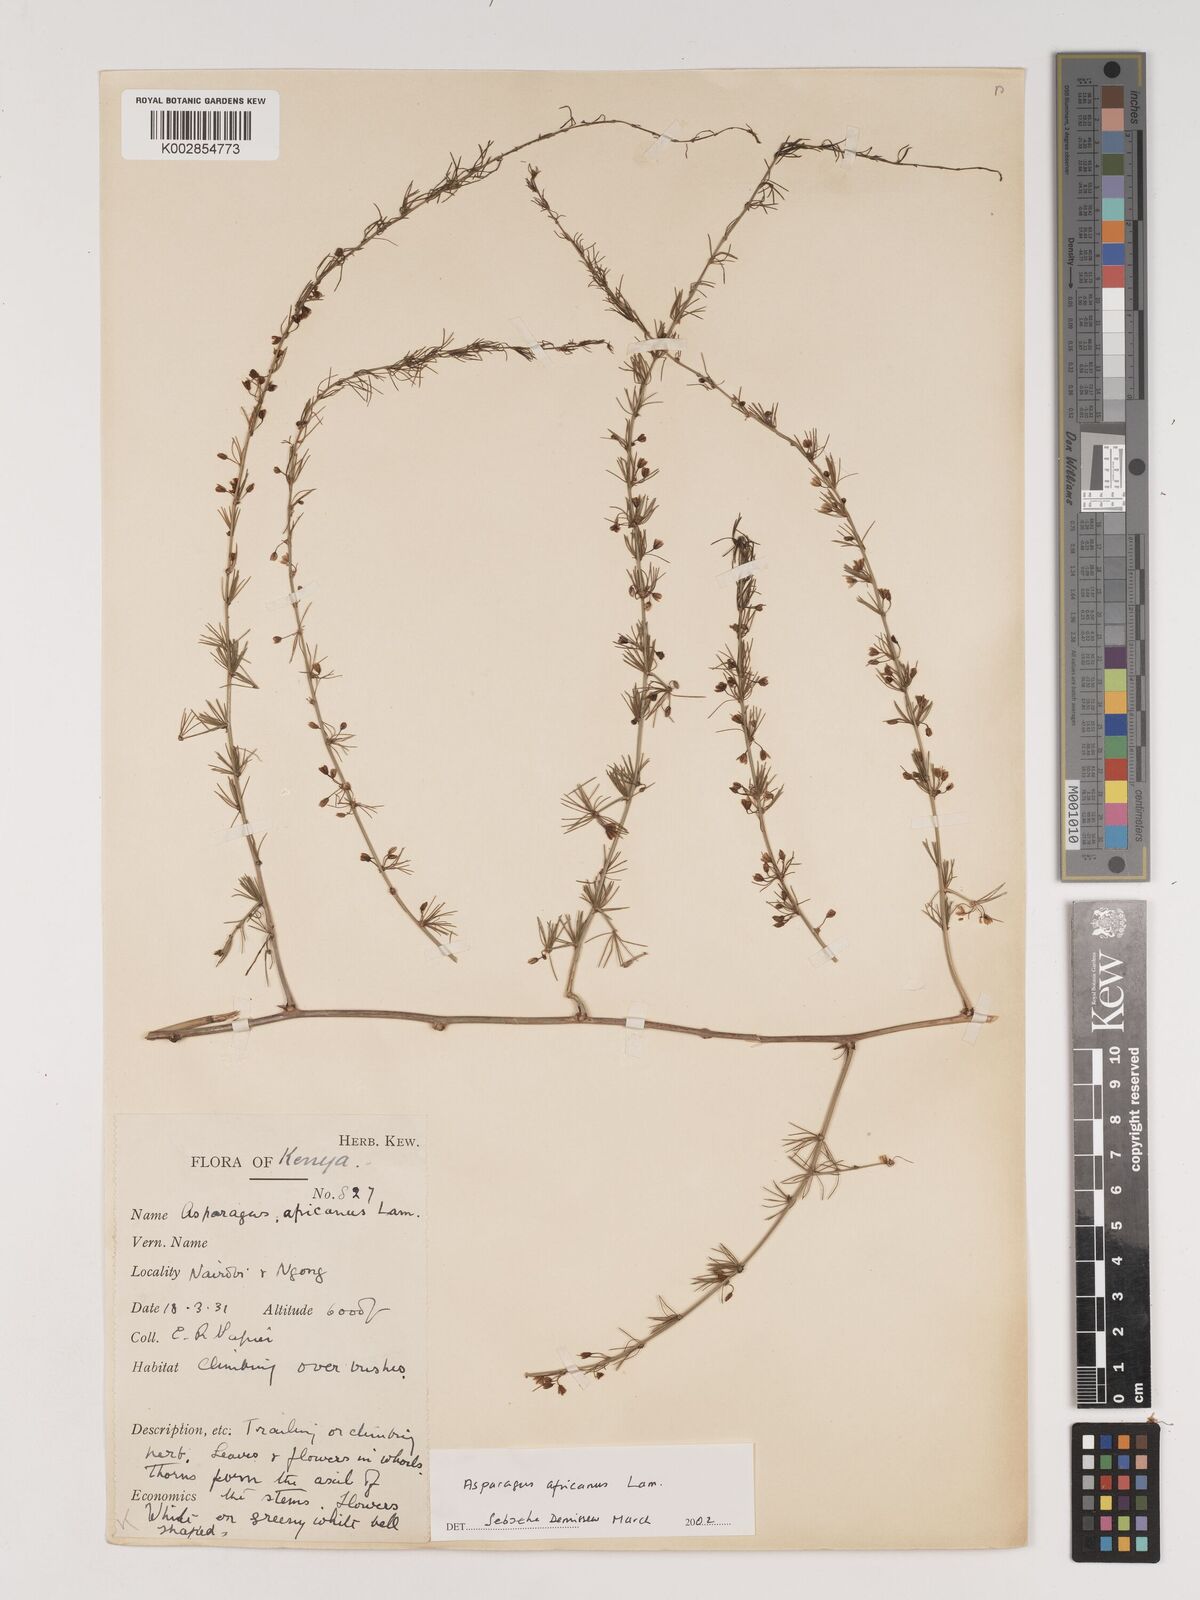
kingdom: Plantae
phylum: Tracheophyta
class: Liliopsida
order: Asparagales
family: Asparagaceae
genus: Asparagus
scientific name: Asparagus africanus
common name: Asparagus-fern
